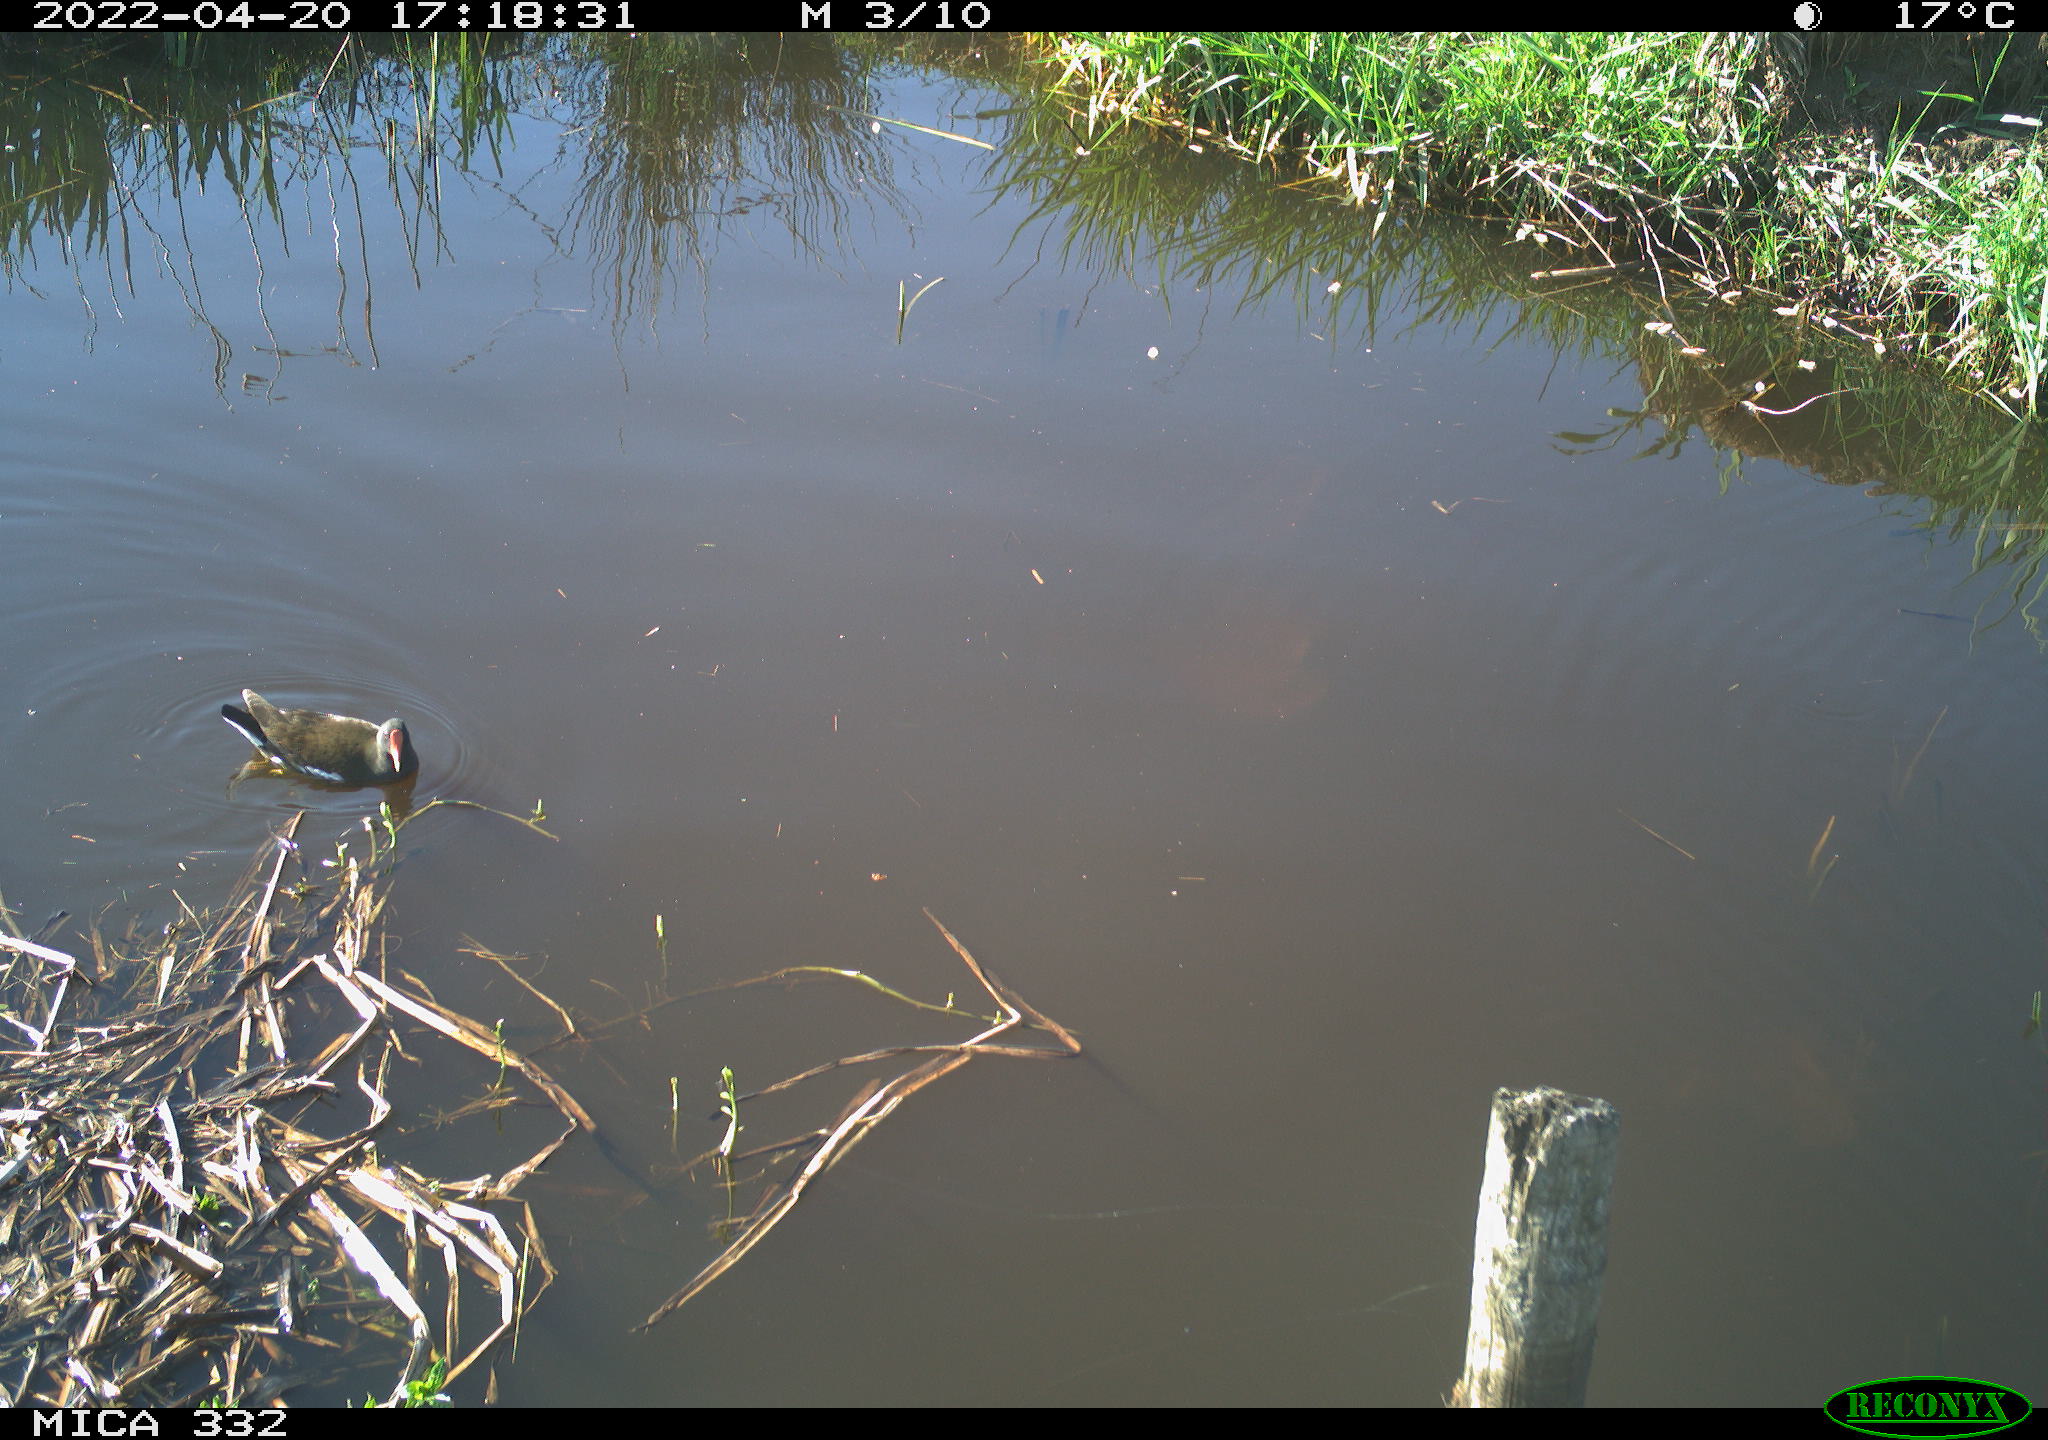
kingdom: Animalia
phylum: Chordata
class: Aves
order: Gruiformes
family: Rallidae
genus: Gallinula
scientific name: Gallinula chloropus
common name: Common moorhen
